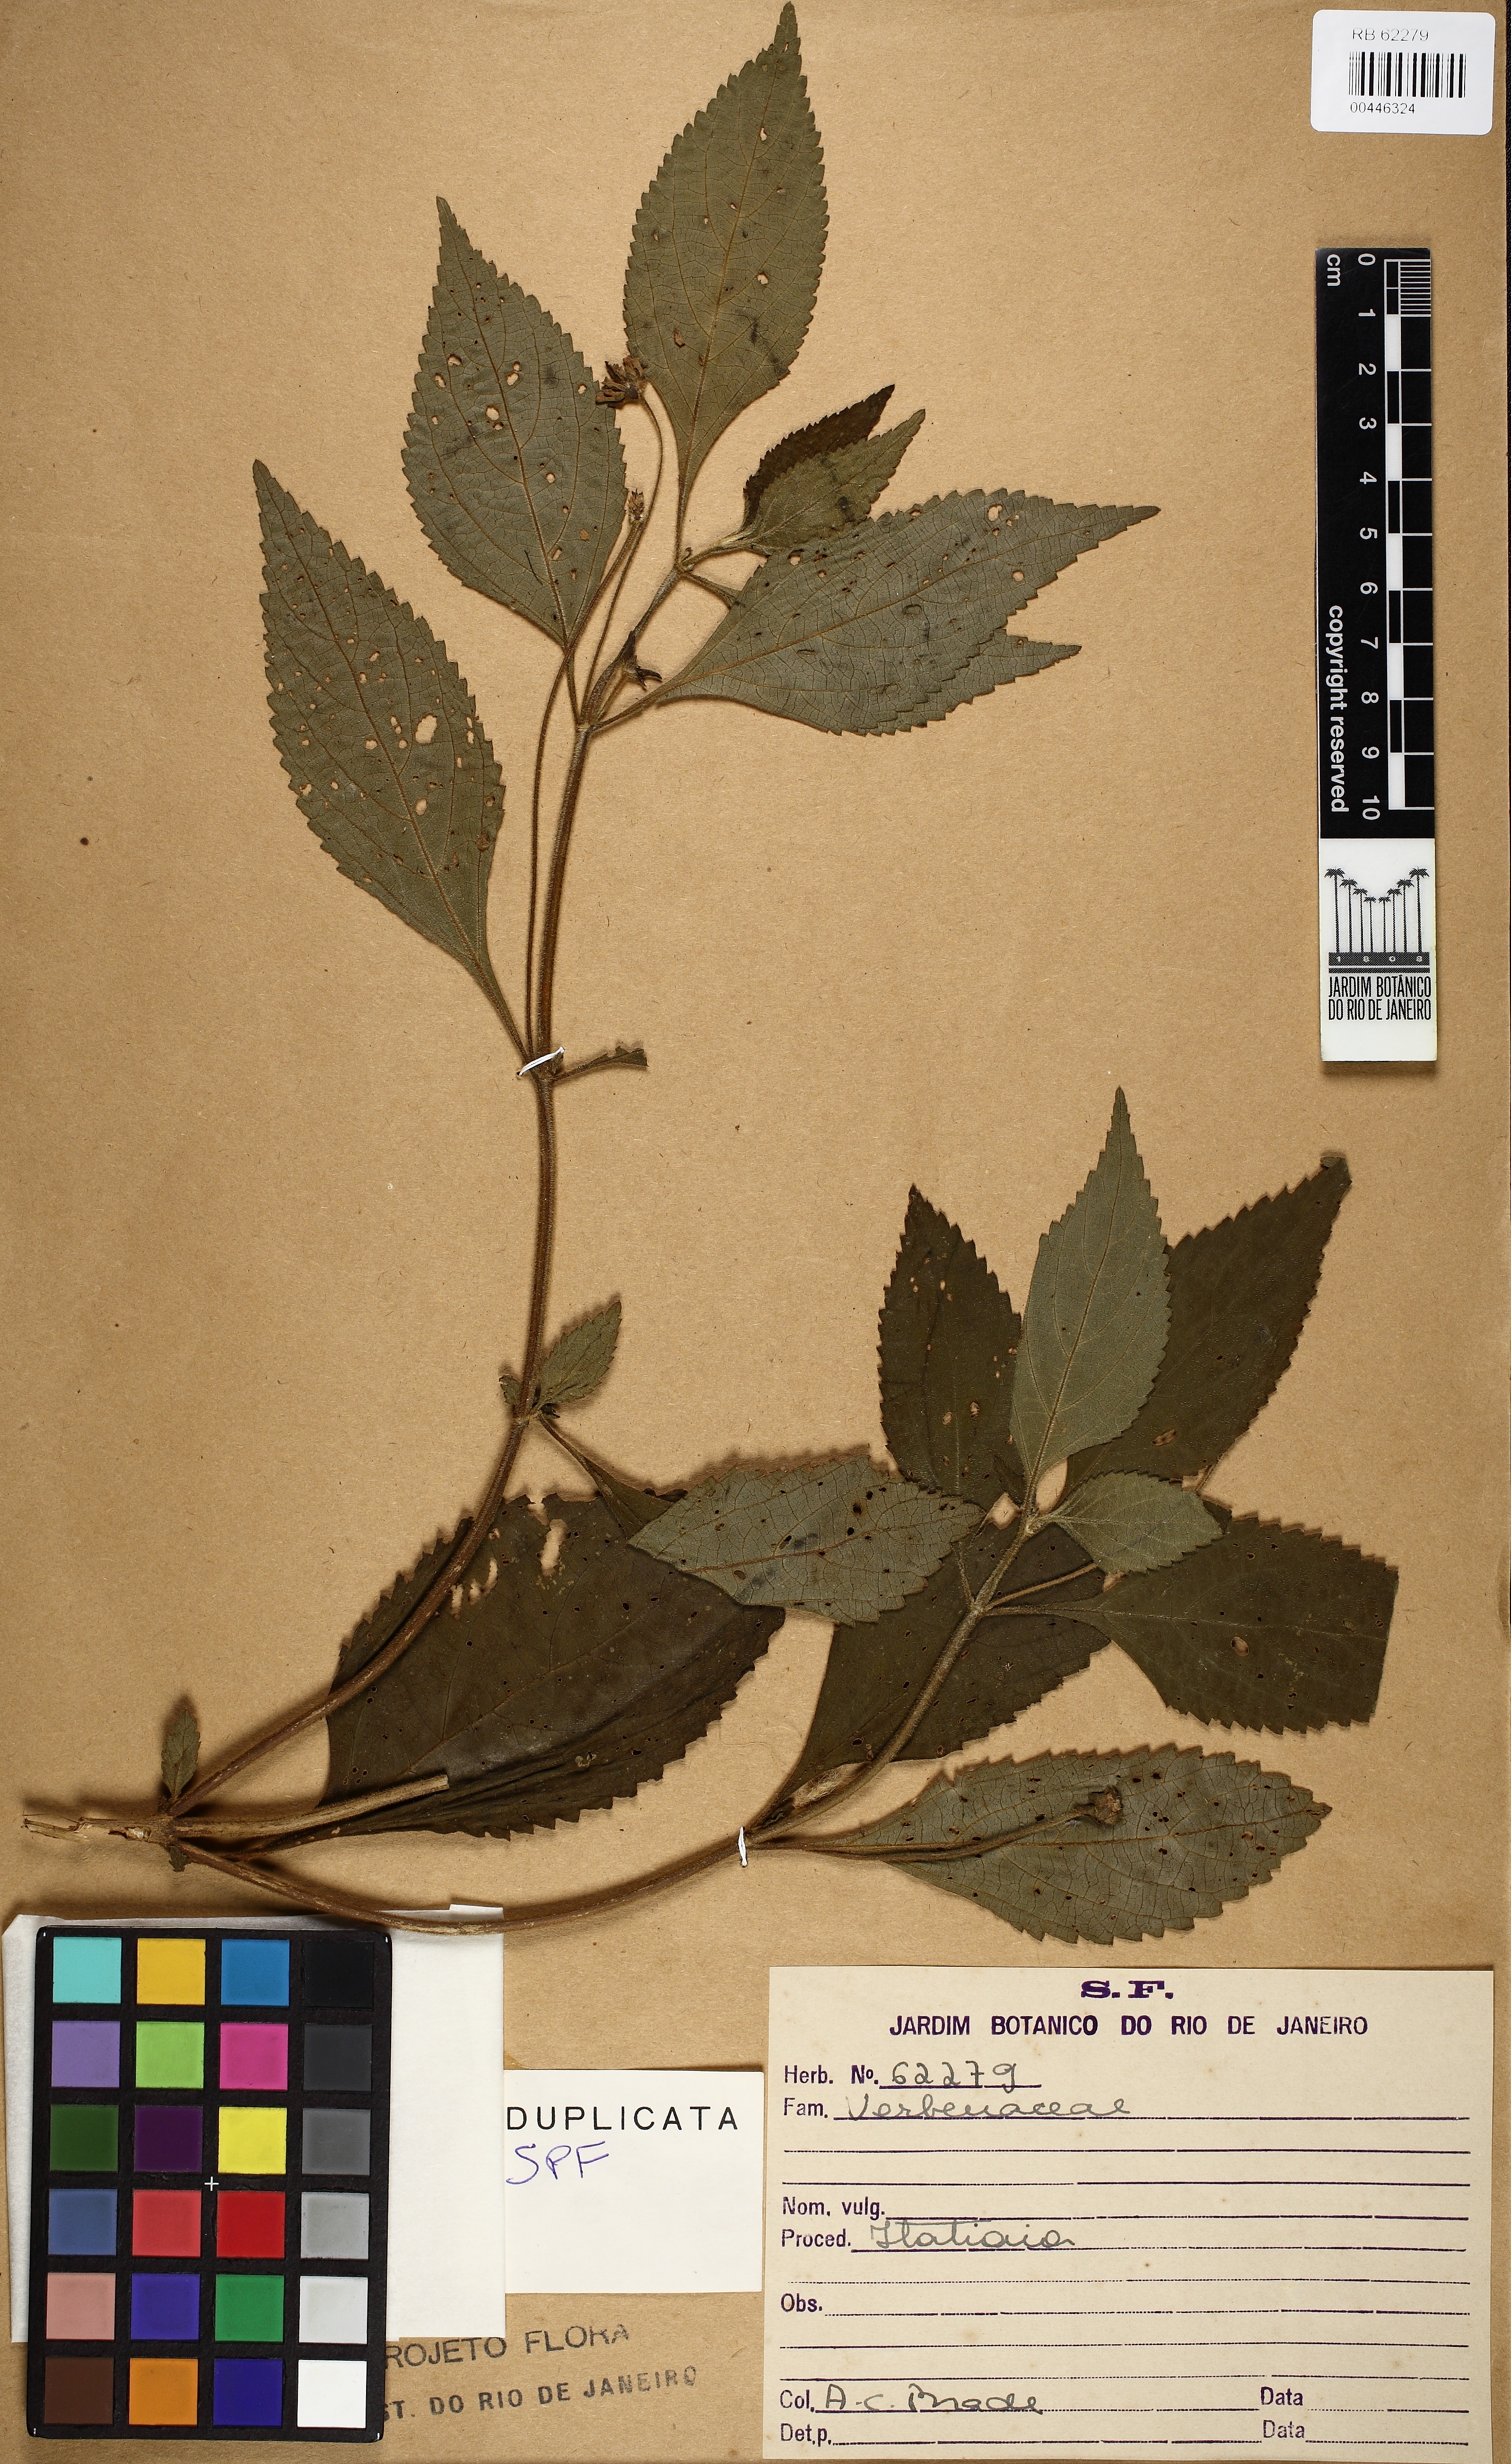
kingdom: Plantae
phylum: Tracheophyta
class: Magnoliopsida
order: Lamiales
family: Verbenaceae
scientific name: Verbenaceae
